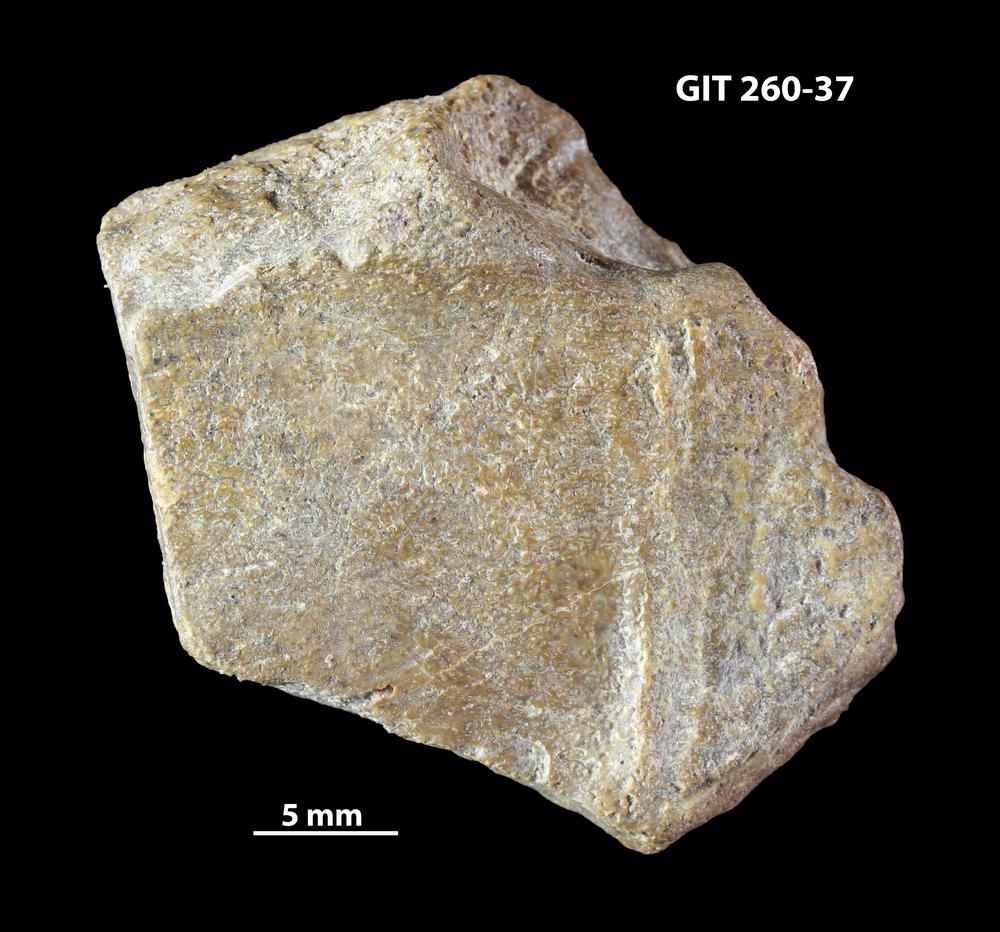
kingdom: Animalia
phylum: Chordata
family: Homostiidae
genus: Homostius
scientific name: Homostius
